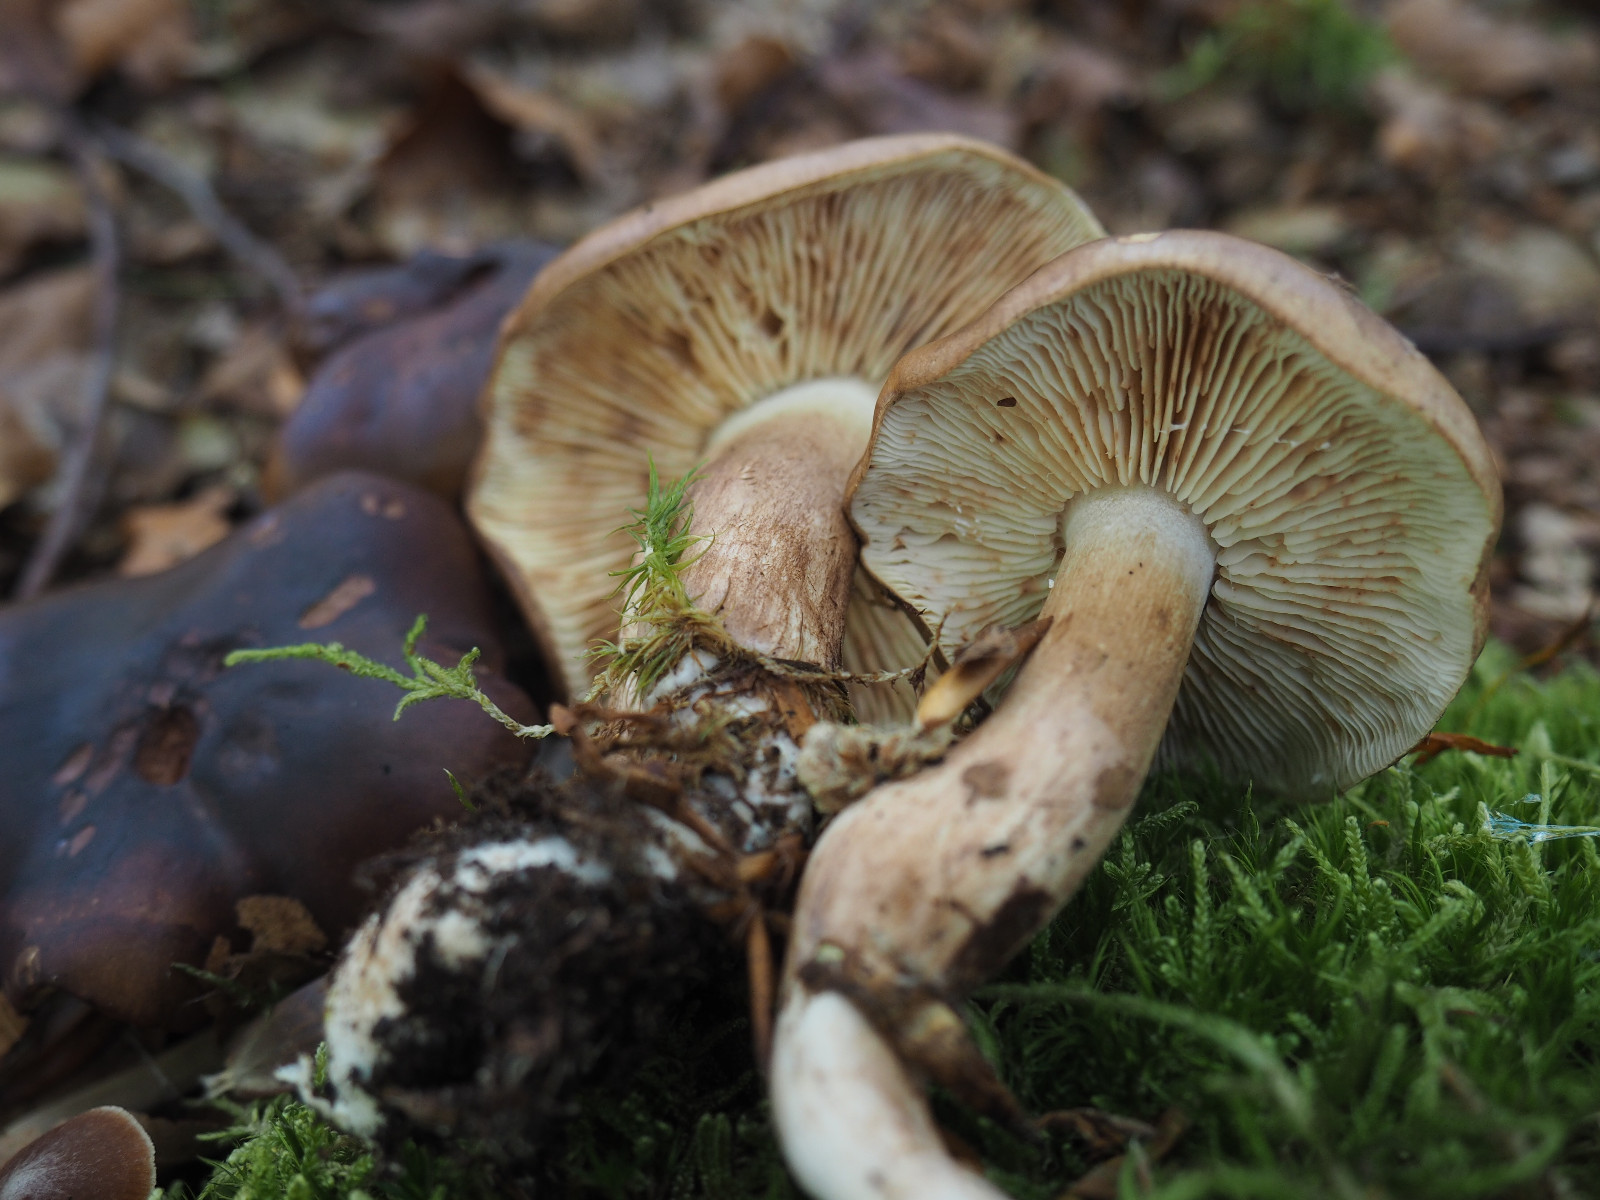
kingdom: Fungi
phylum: Basidiomycota
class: Agaricomycetes
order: Agaricales
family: Tricholomataceae
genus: Tricholoma
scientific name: Tricholoma ustale
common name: sveden ridderhat
